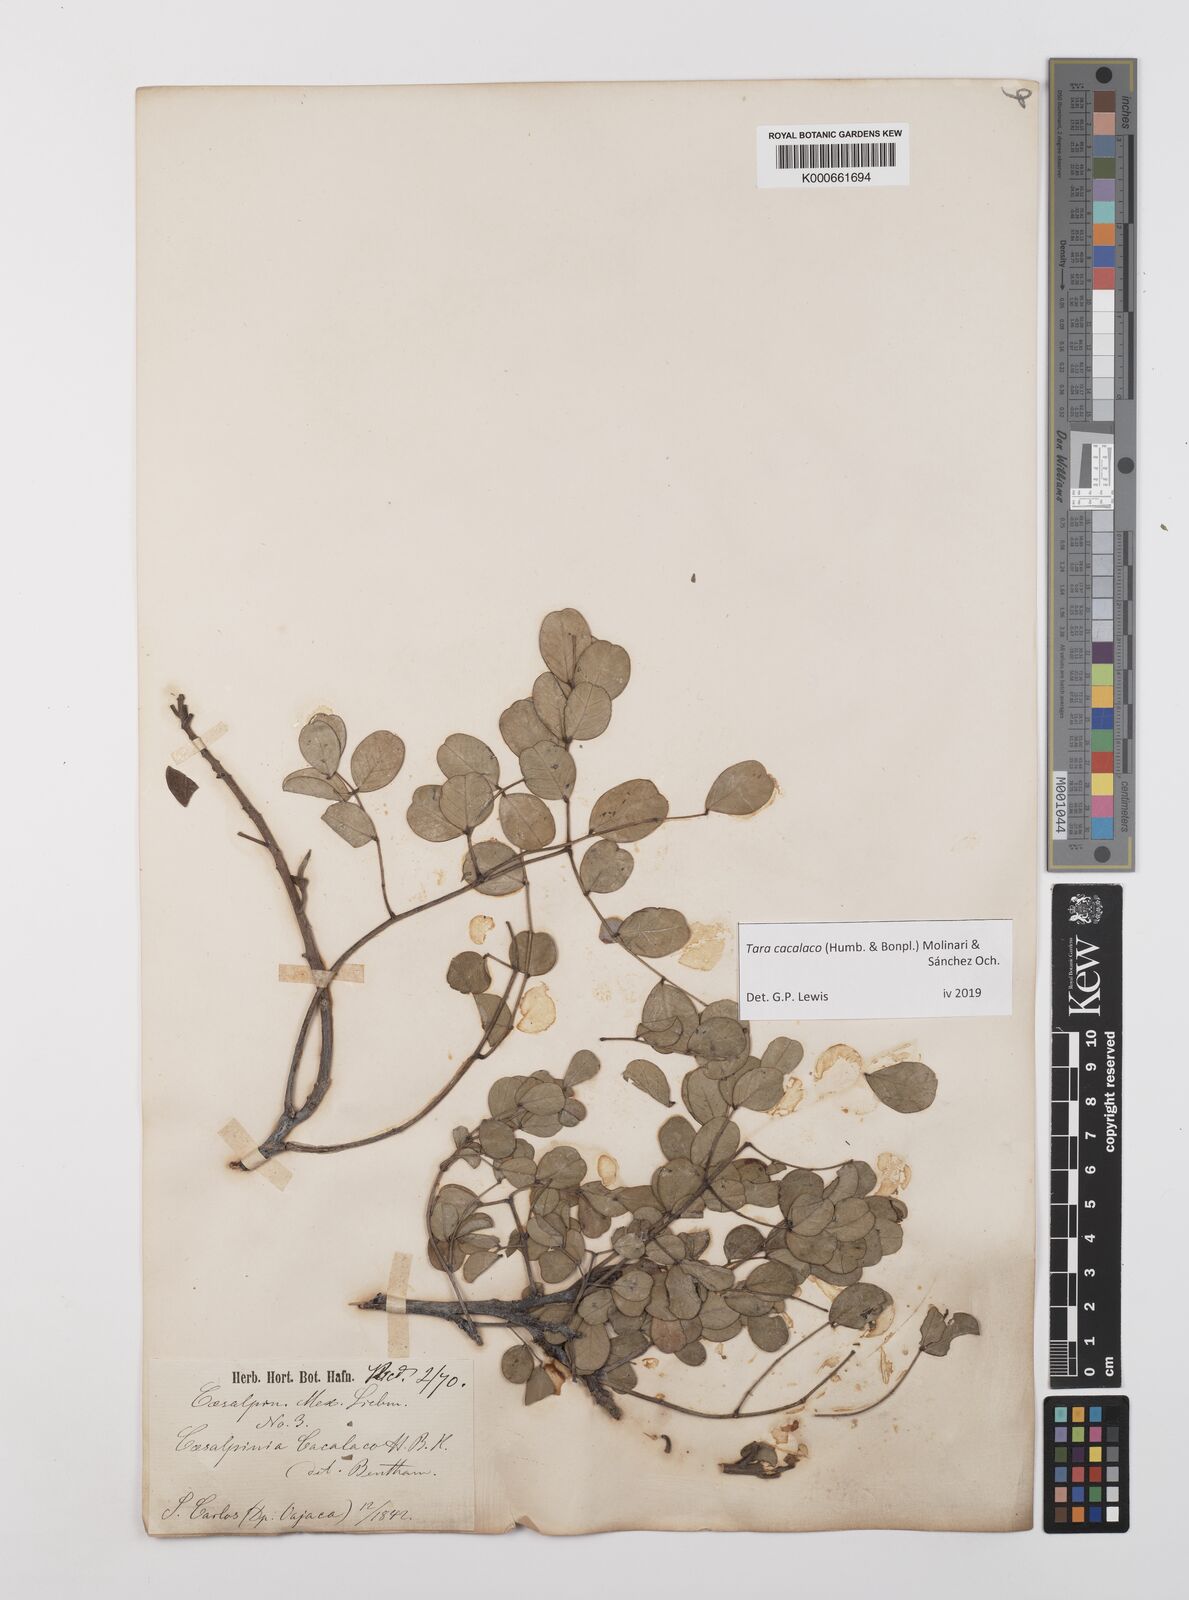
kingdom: Plantae
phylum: Tracheophyta
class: Magnoliopsida
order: Fabales
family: Fabaceae
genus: Tara
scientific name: Tara cacalaco
